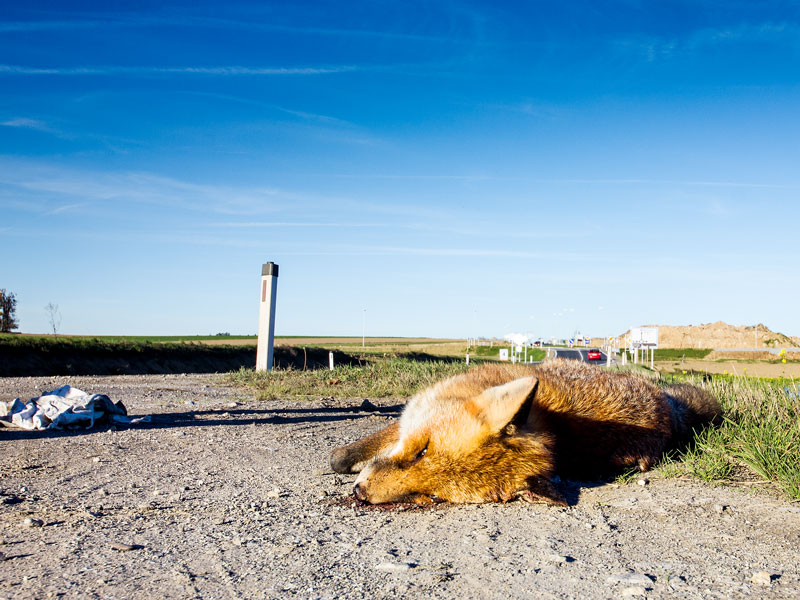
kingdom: Animalia
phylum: Chordata
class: Mammalia
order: Carnivora
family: Canidae
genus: Vulpes
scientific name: Vulpes vulpes
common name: Red fox
